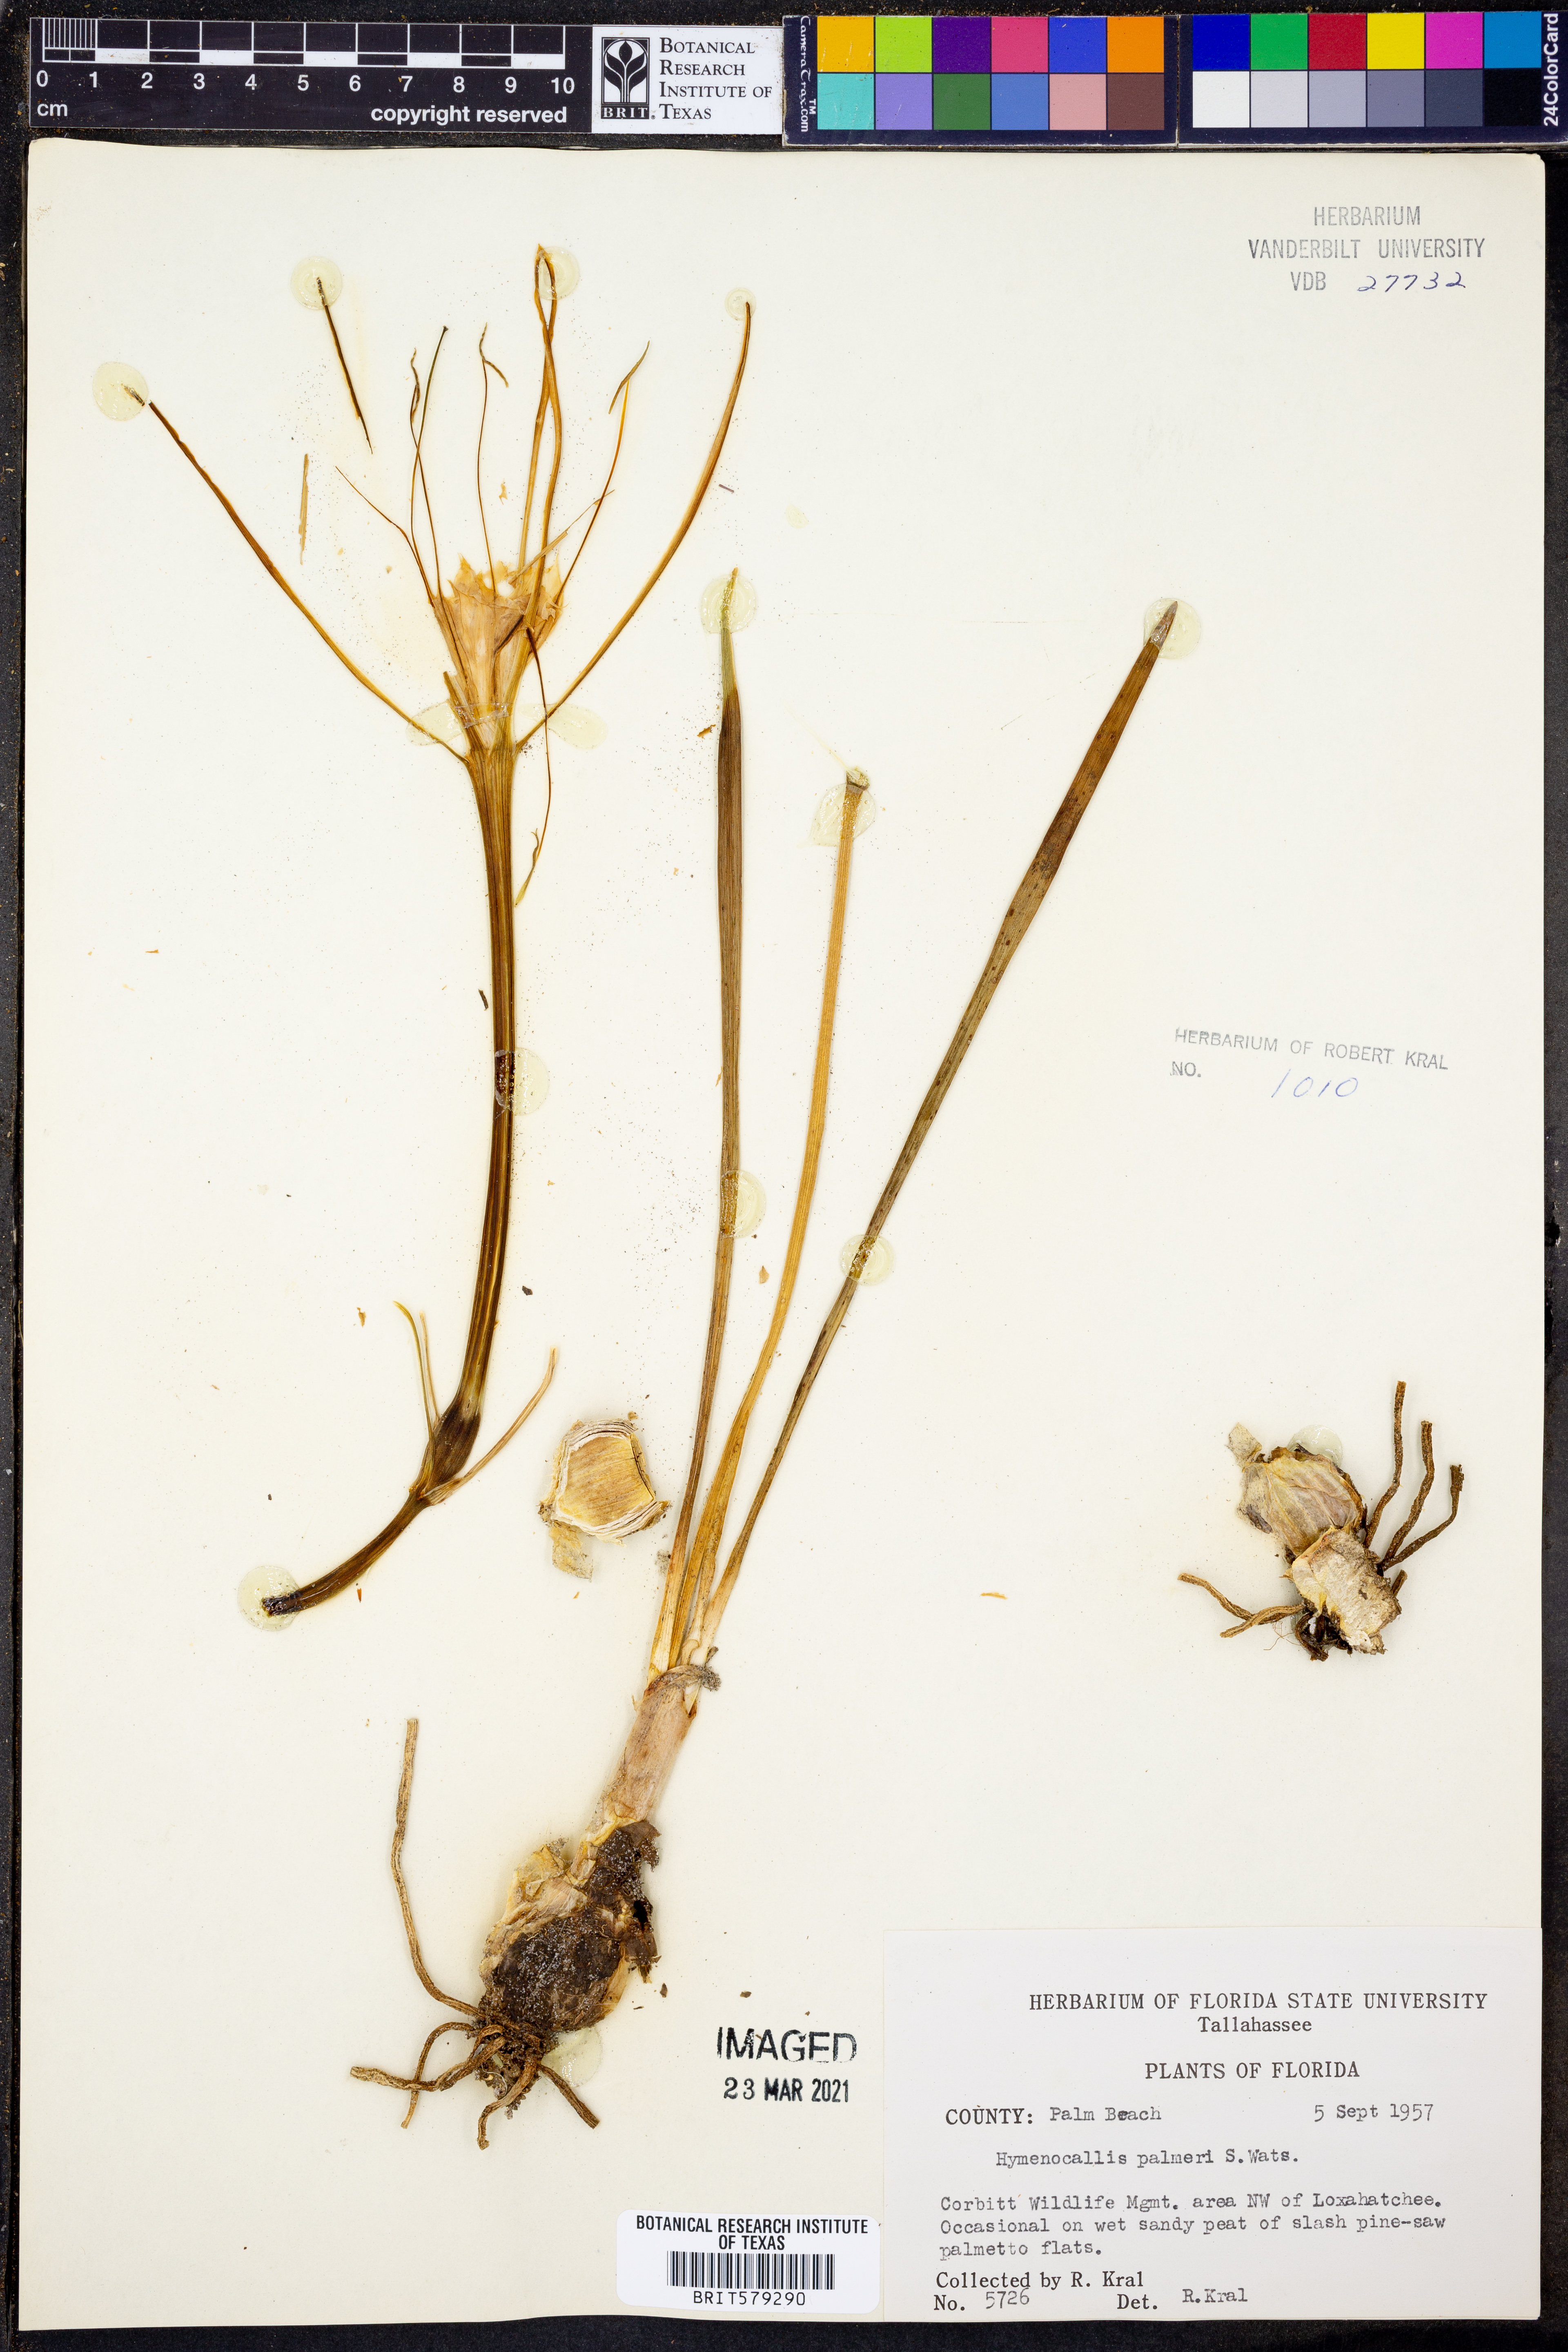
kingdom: Plantae
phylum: Tracheophyta
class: Liliopsida
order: Asparagales
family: Amaryllidaceae
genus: Hymenocallis
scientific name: Hymenocallis palmeri
